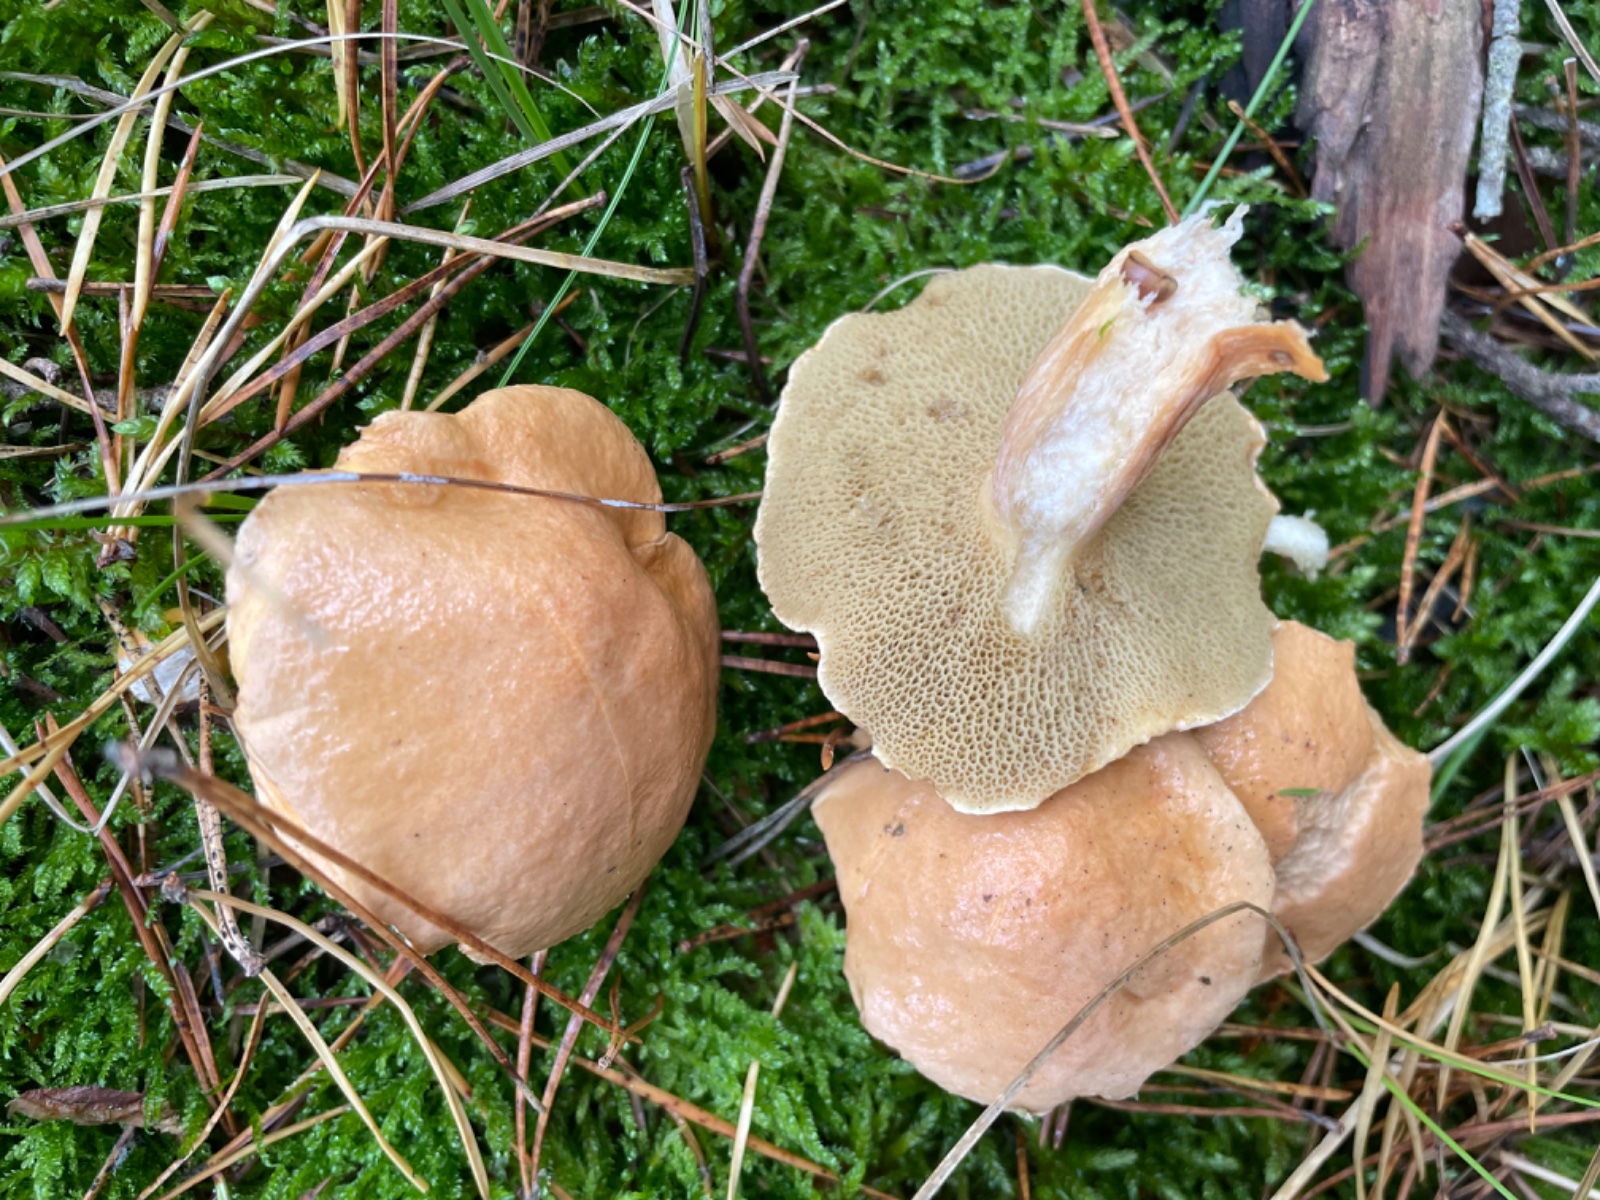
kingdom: Fungi
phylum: Basidiomycota
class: Agaricomycetes
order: Boletales
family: Suillaceae
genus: Suillus
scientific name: Suillus bovinus
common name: grovporet slimrørhat
